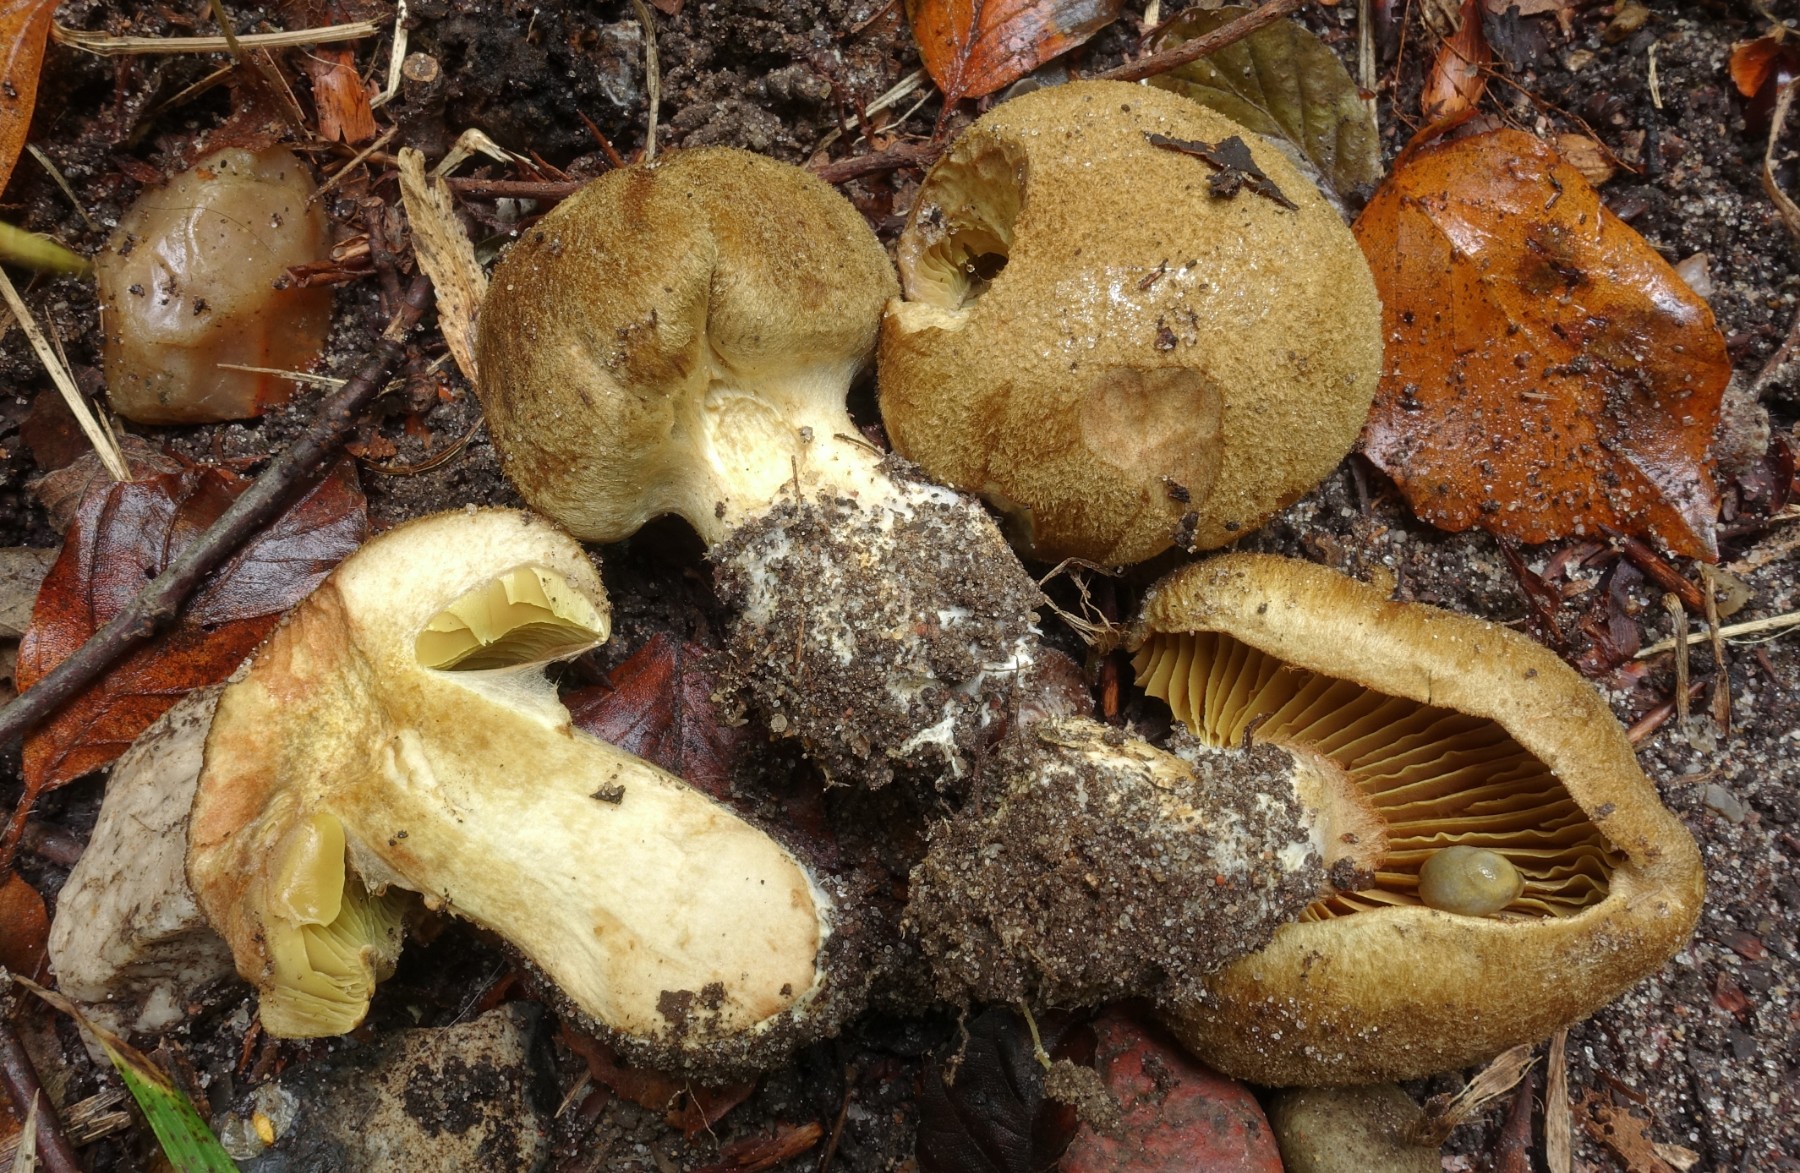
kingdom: Fungi
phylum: Basidiomycota
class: Agaricomycetes
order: Agaricales
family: Cortinariaceae
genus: Cortinarius
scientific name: Cortinarius cotoneus
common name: ulden slørhat
